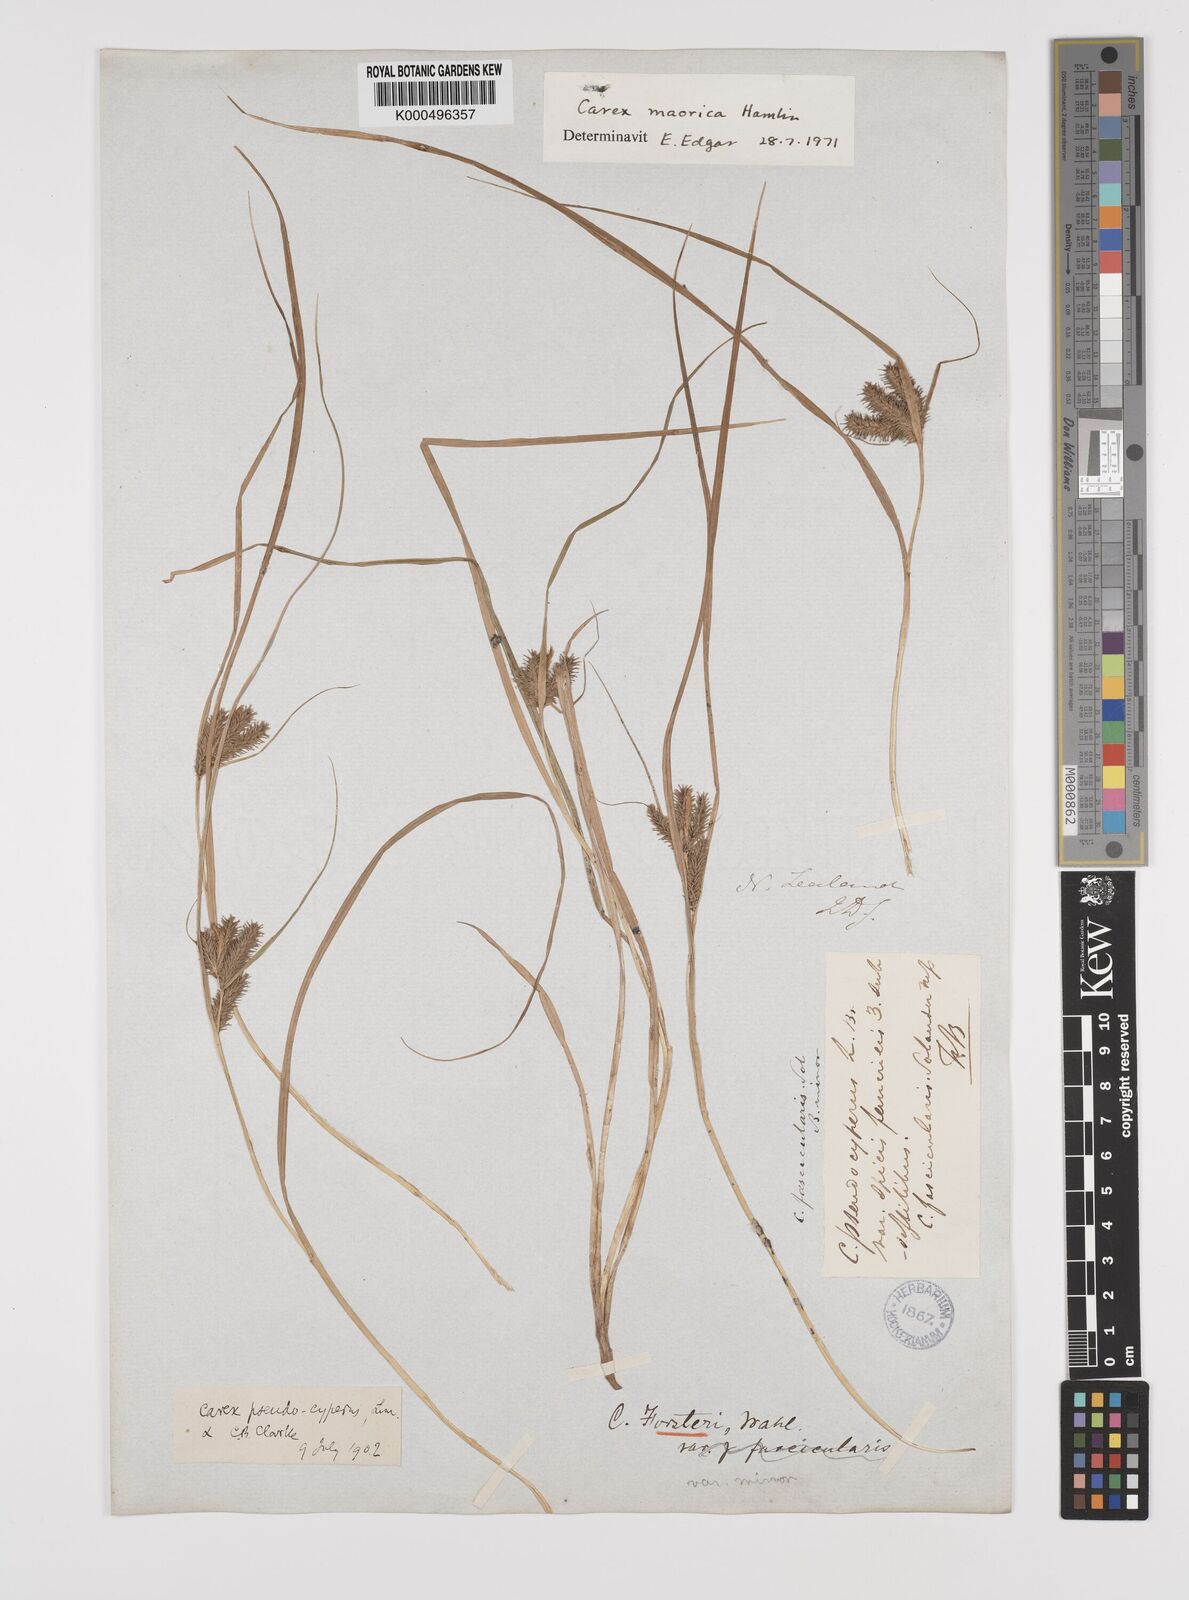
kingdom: Plantae
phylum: Tracheophyta
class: Liliopsida
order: Poales
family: Cyperaceae
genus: Carex
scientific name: Carex maorica
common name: Maori sedge
